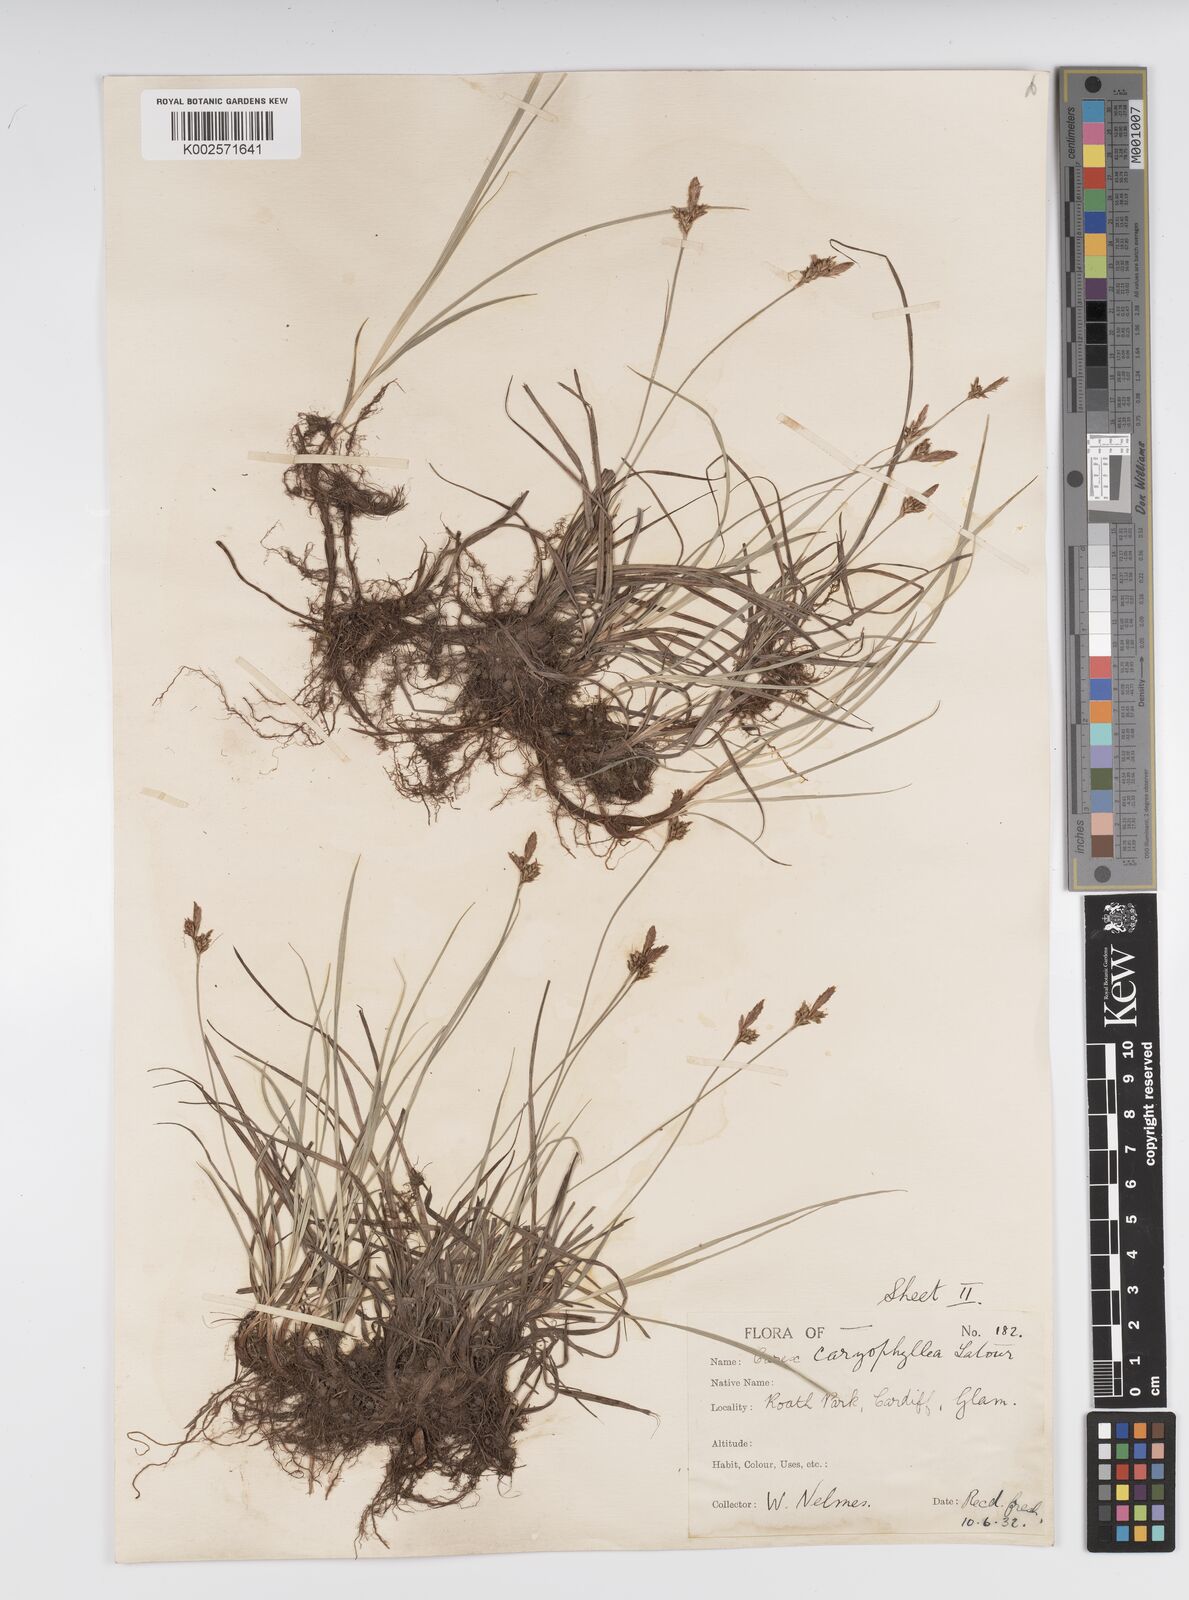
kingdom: Plantae
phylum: Tracheophyta
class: Liliopsida
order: Poales
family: Cyperaceae
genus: Carex
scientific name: Carex caryophyllea
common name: Spring sedge
